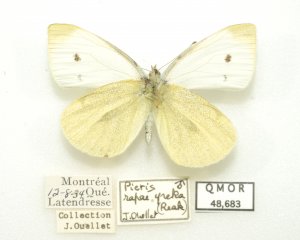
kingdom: Animalia
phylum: Arthropoda
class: Insecta
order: Lepidoptera
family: Pieridae
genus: Pieris
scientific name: Pieris rapae
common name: Cabbage White
